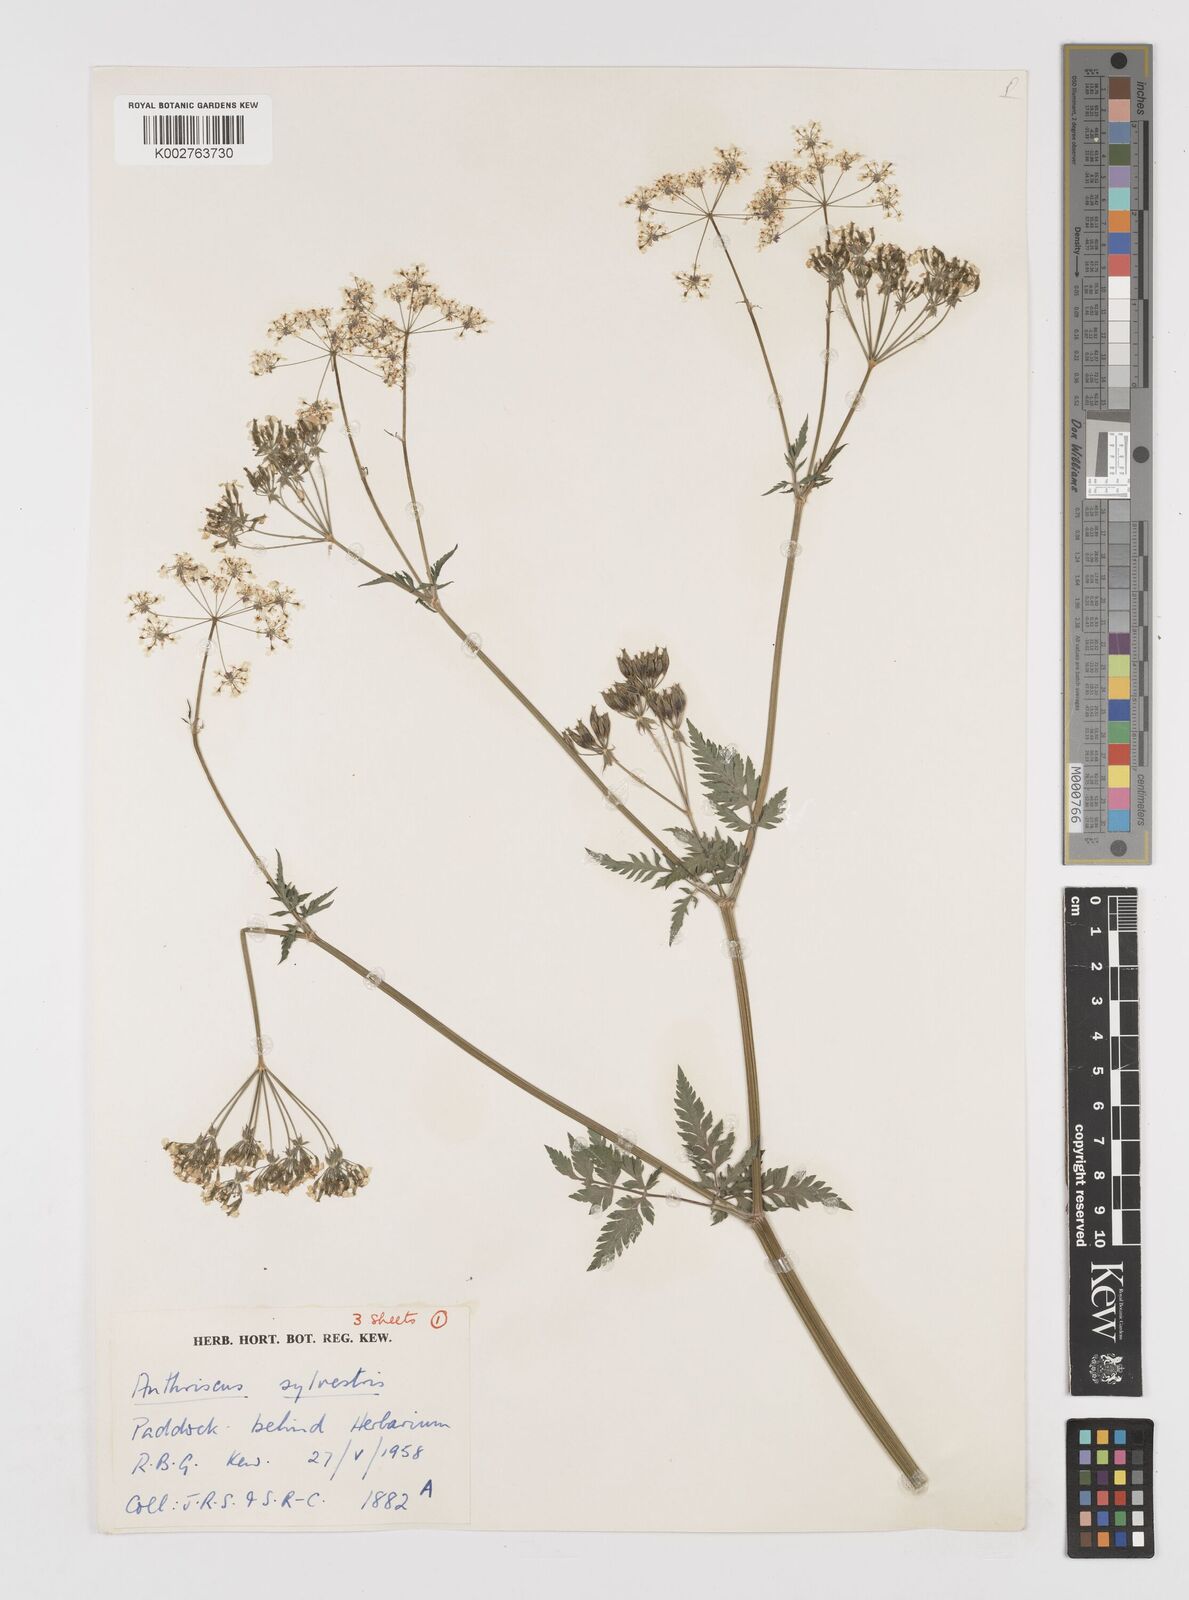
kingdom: Plantae
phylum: Tracheophyta
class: Magnoliopsida
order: Apiales
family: Apiaceae
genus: Anthriscus
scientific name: Anthriscus sylvestris
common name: Cow parsley
